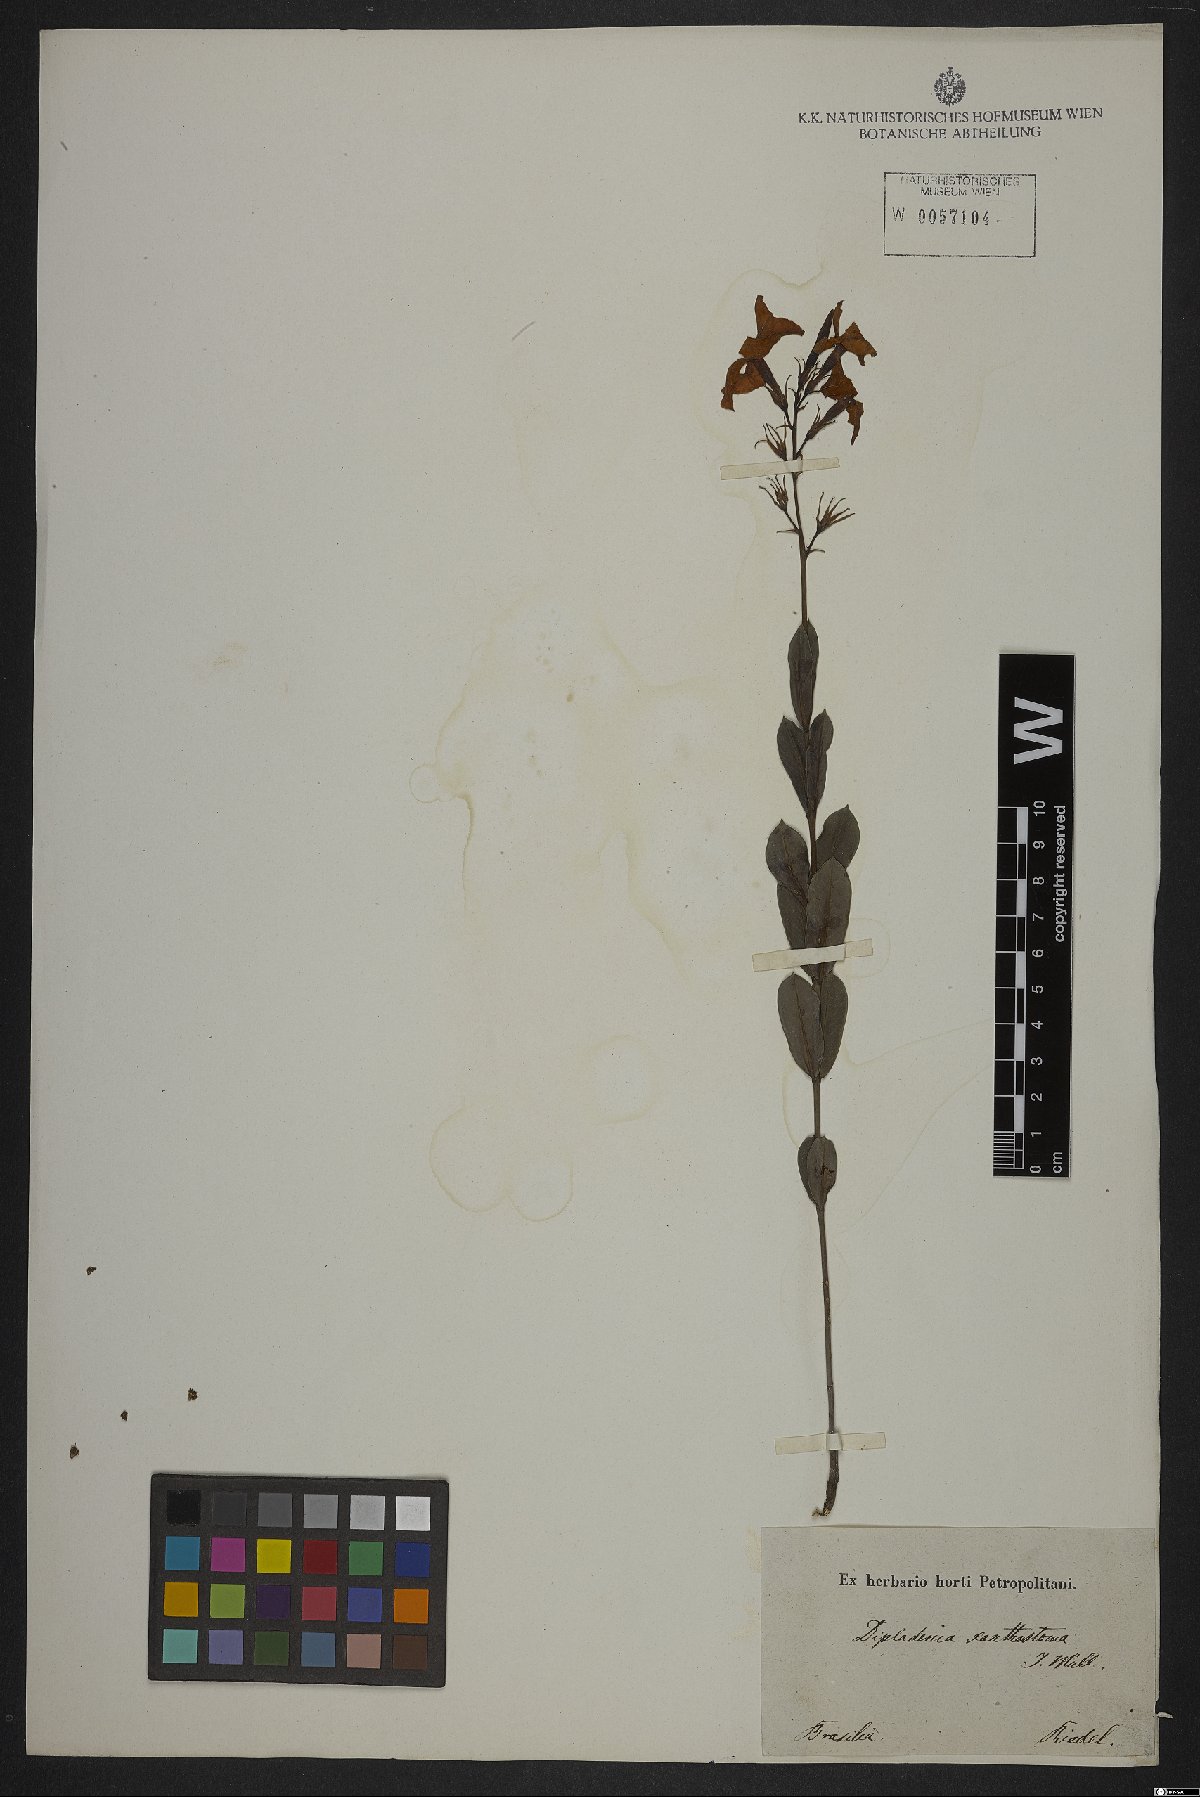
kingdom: Plantae
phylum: Tracheophyta
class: Magnoliopsida
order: Gentianales
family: Apocynaceae
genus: Mandevilla
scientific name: Mandevilla coccinea
